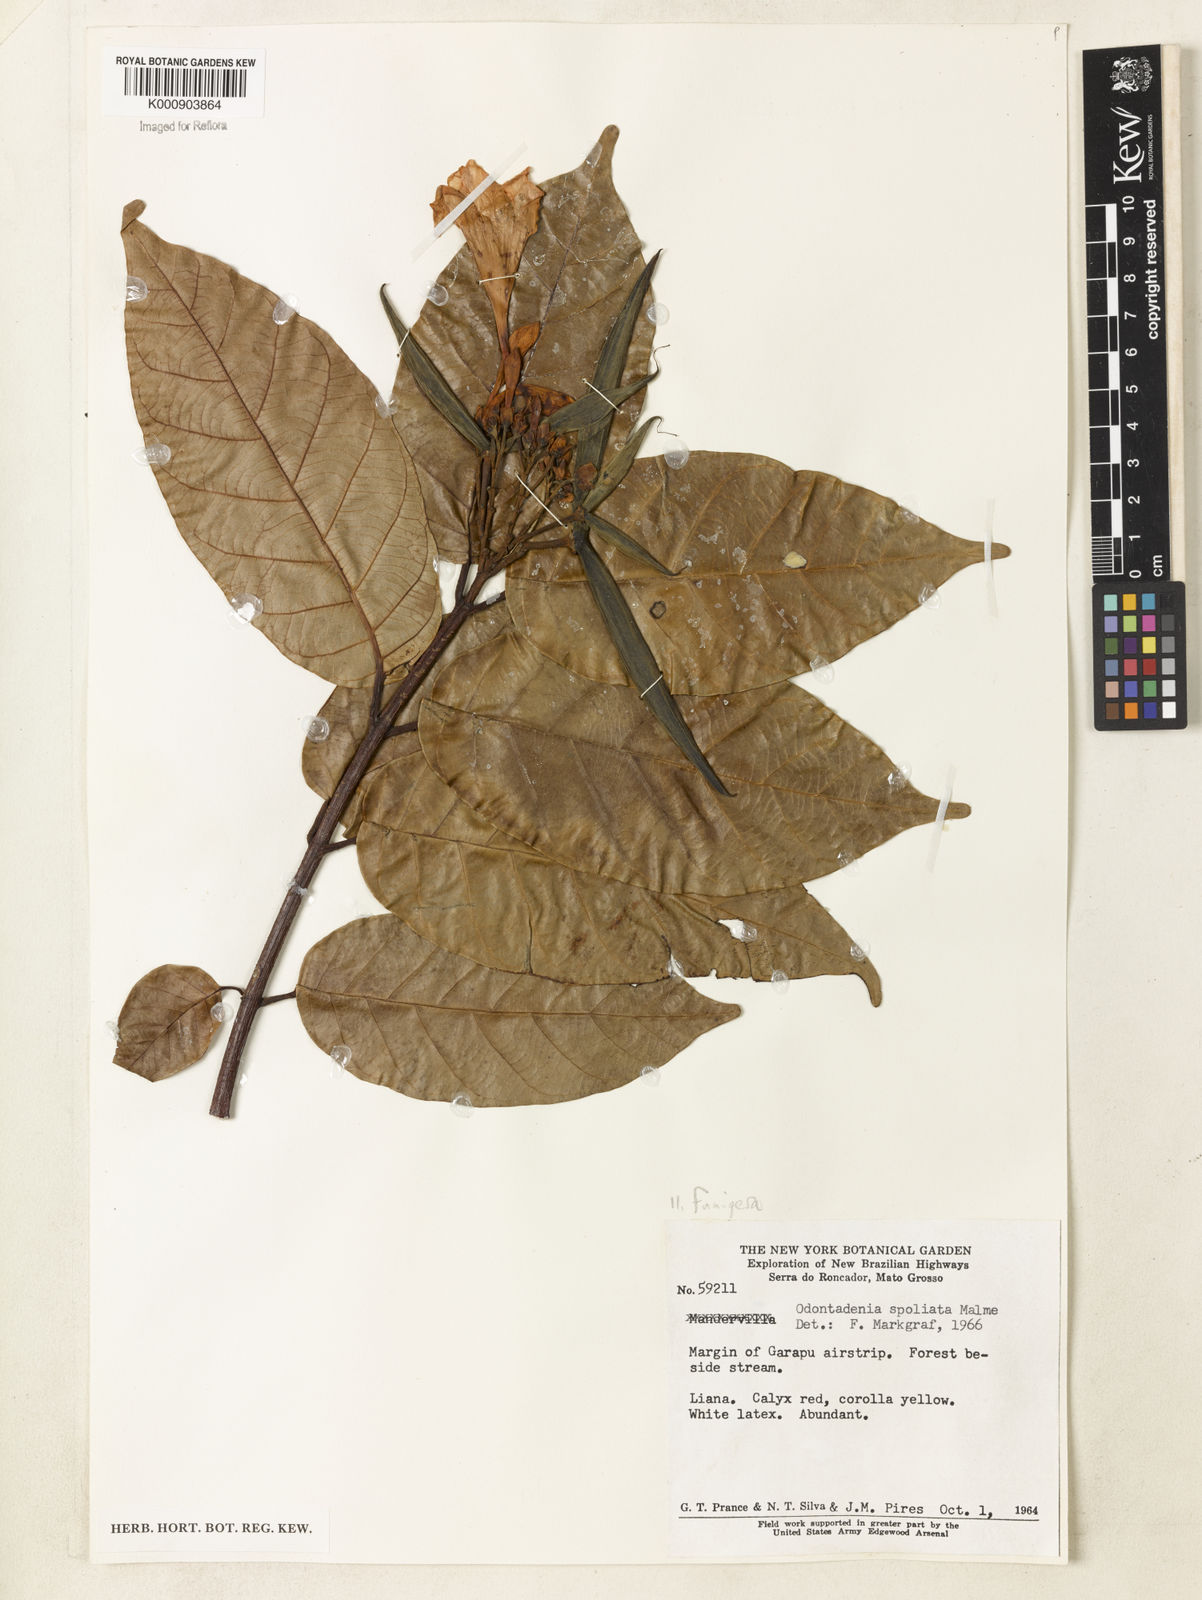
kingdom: Plantae
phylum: Tracheophyta
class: Magnoliopsida
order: Gentianales
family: Apocynaceae
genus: Odontadenia
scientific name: Odontadenia funigera
